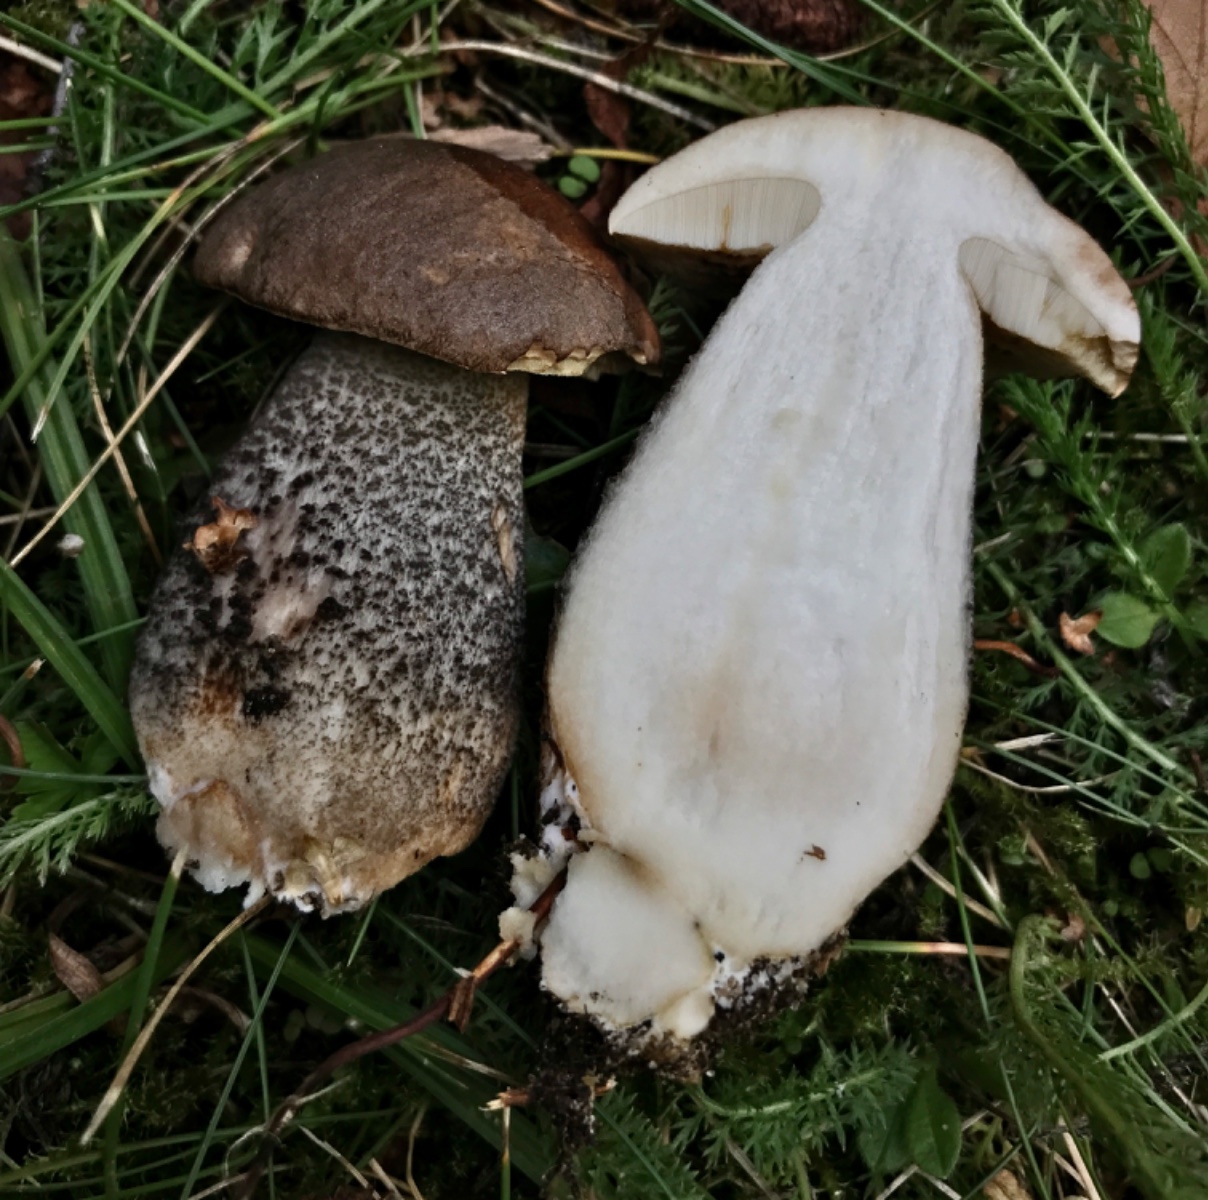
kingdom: Fungi
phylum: Basidiomycota
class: Agaricomycetes
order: Boletales
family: Boletaceae
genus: Leccinum
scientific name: Leccinum scabrum
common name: brun skælrørhat
